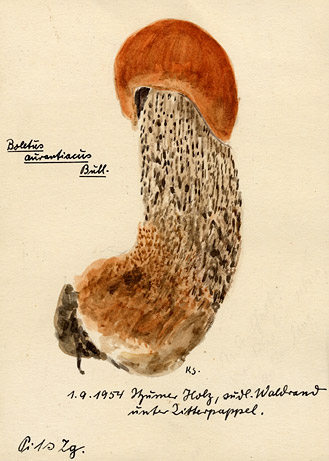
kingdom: Plantae
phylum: Tracheophyta
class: Magnoliopsida
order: Malpighiales
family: Salicaceae
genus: Populus
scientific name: Populus tremula
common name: European aspen
